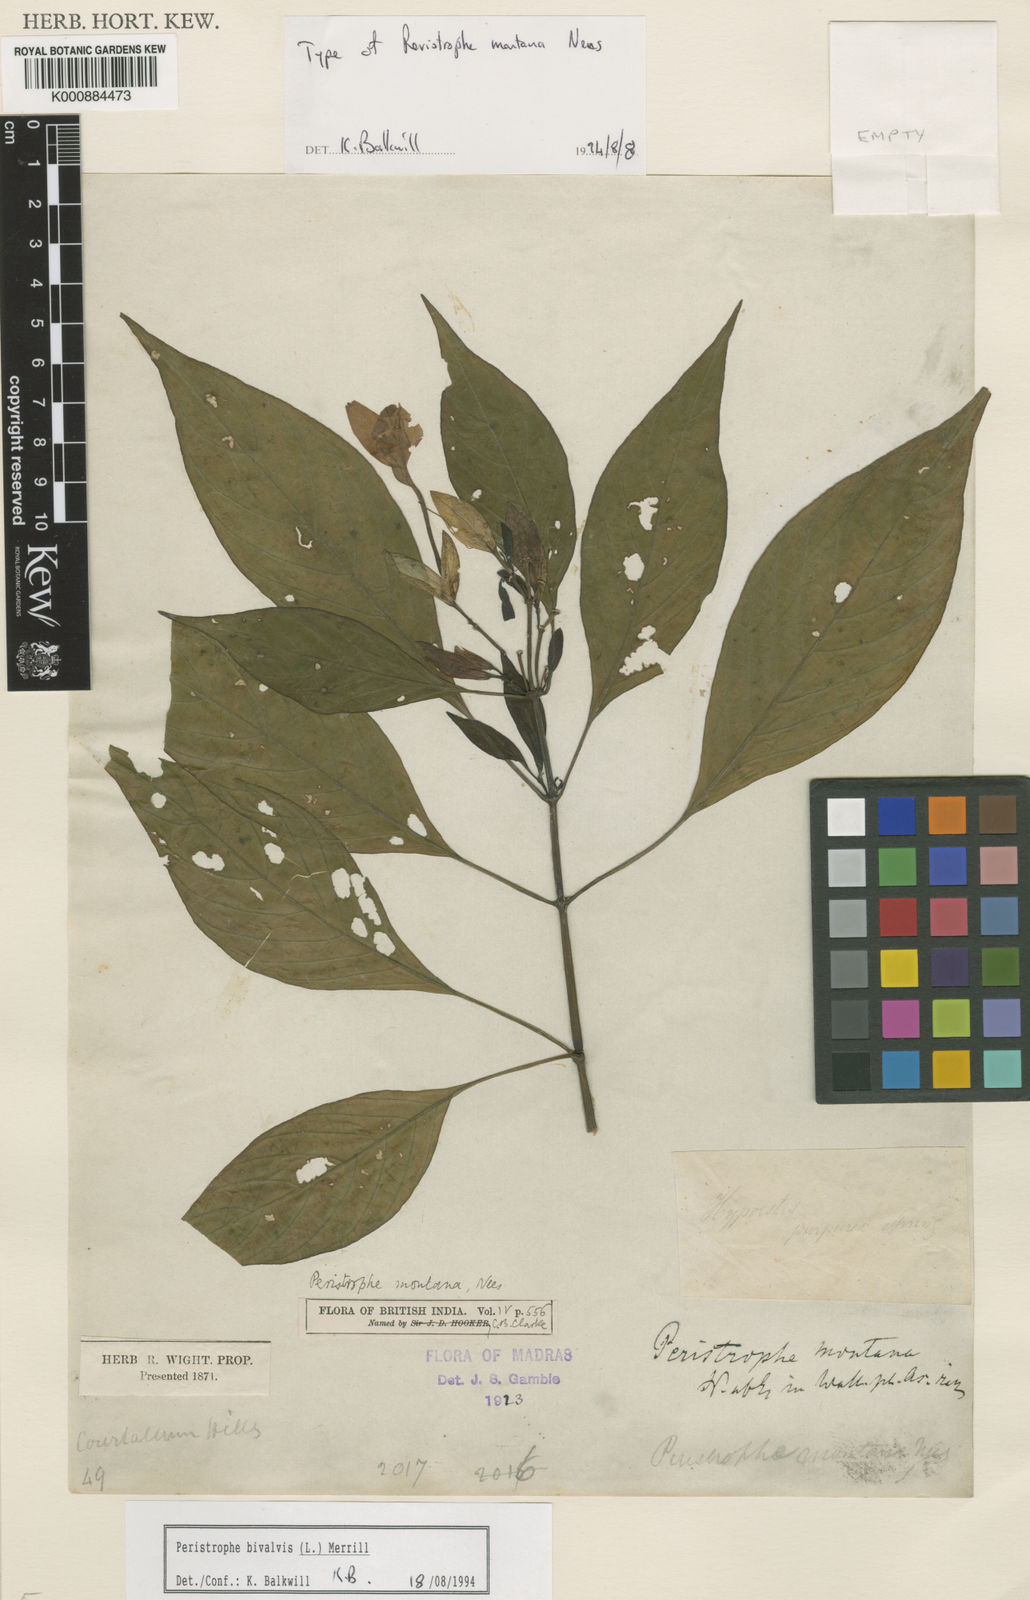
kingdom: Plantae
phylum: Tracheophyta
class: Magnoliopsida
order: Lamiales
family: Acanthaceae
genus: Dicliptera
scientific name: Dicliptera tinctoria
